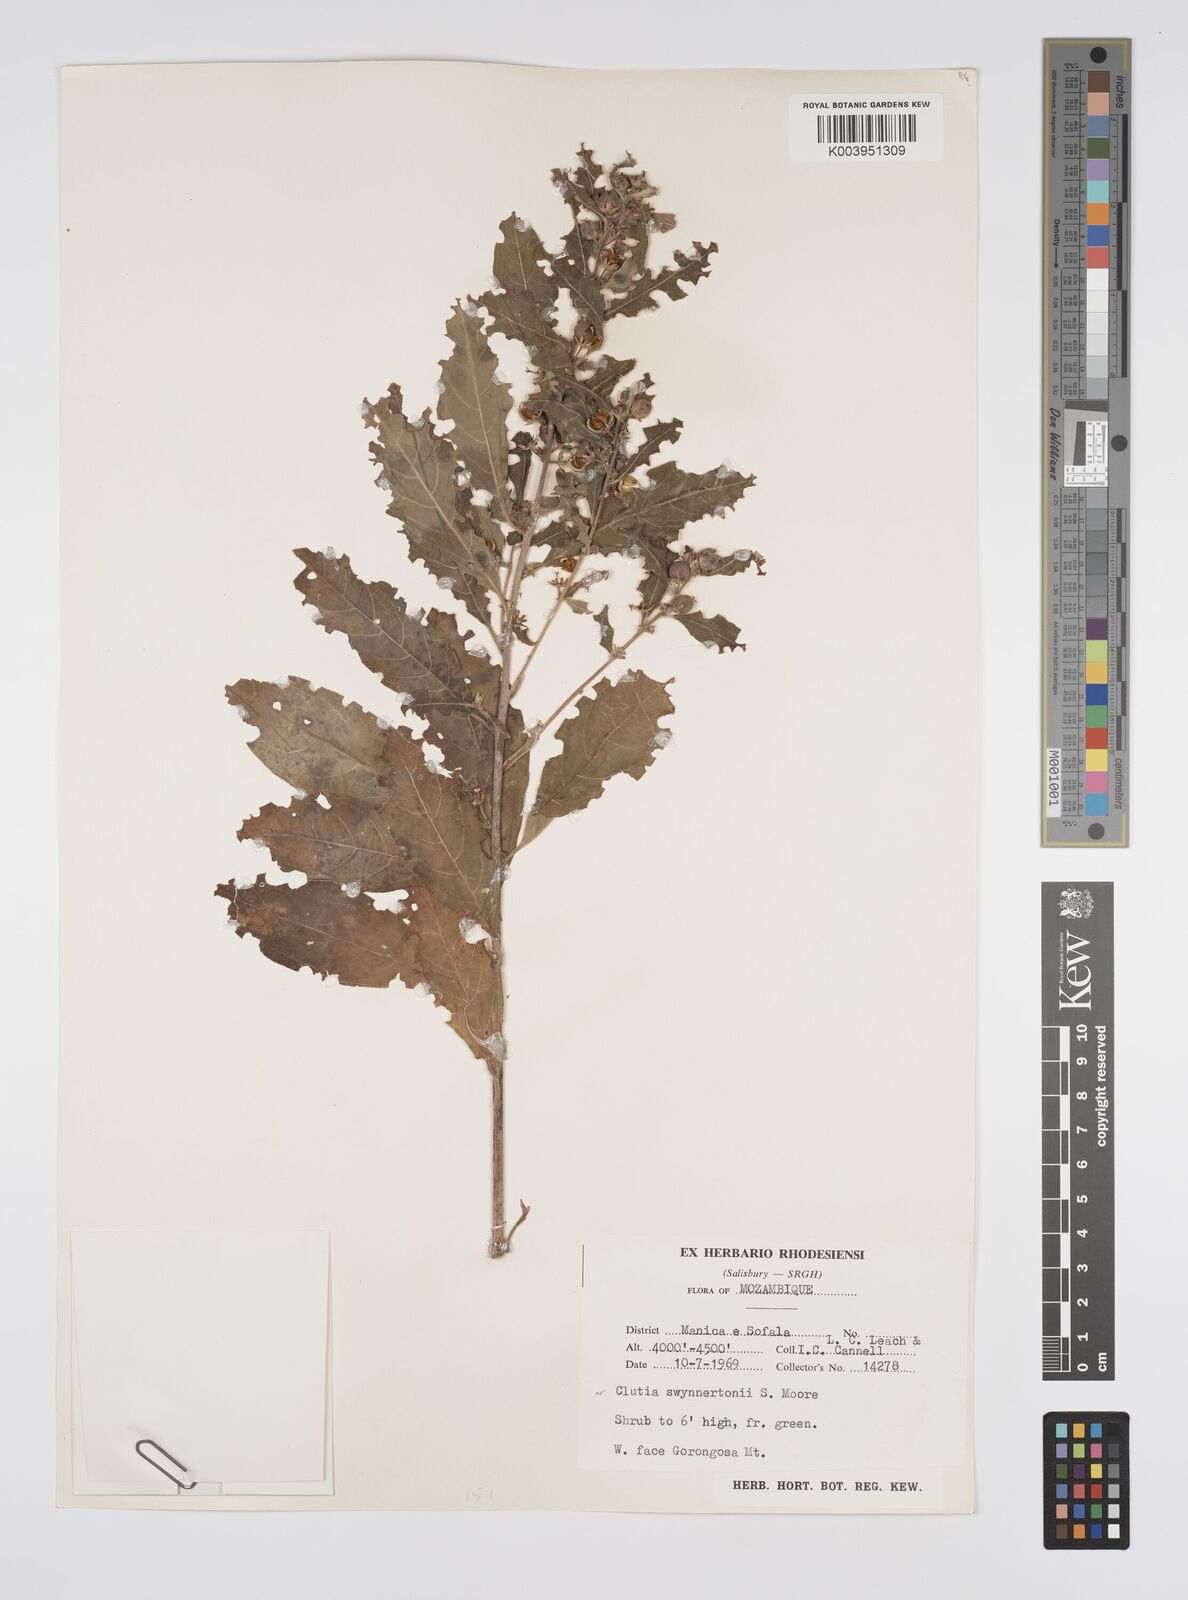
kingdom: Plantae
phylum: Tracheophyta
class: Magnoliopsida
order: Malpighiales
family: Peraceae
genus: Clutia
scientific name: Clutia swynnertonii
